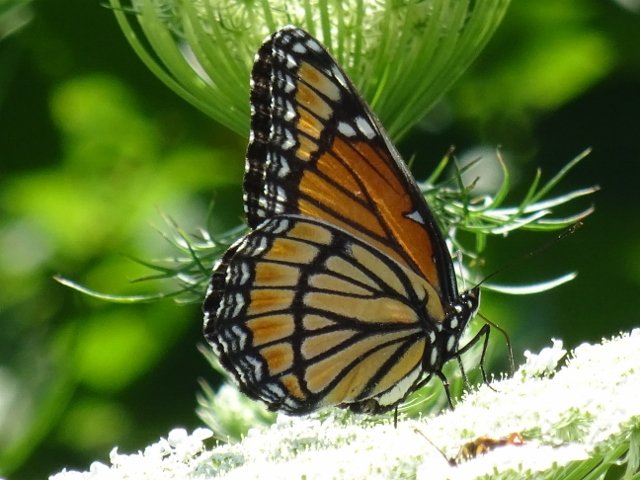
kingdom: Animalia
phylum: Arthropoda
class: Insecta
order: Lepidoptera
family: Nymphalidae
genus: Limenitis
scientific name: Limenitis archippus
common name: Viceroy
